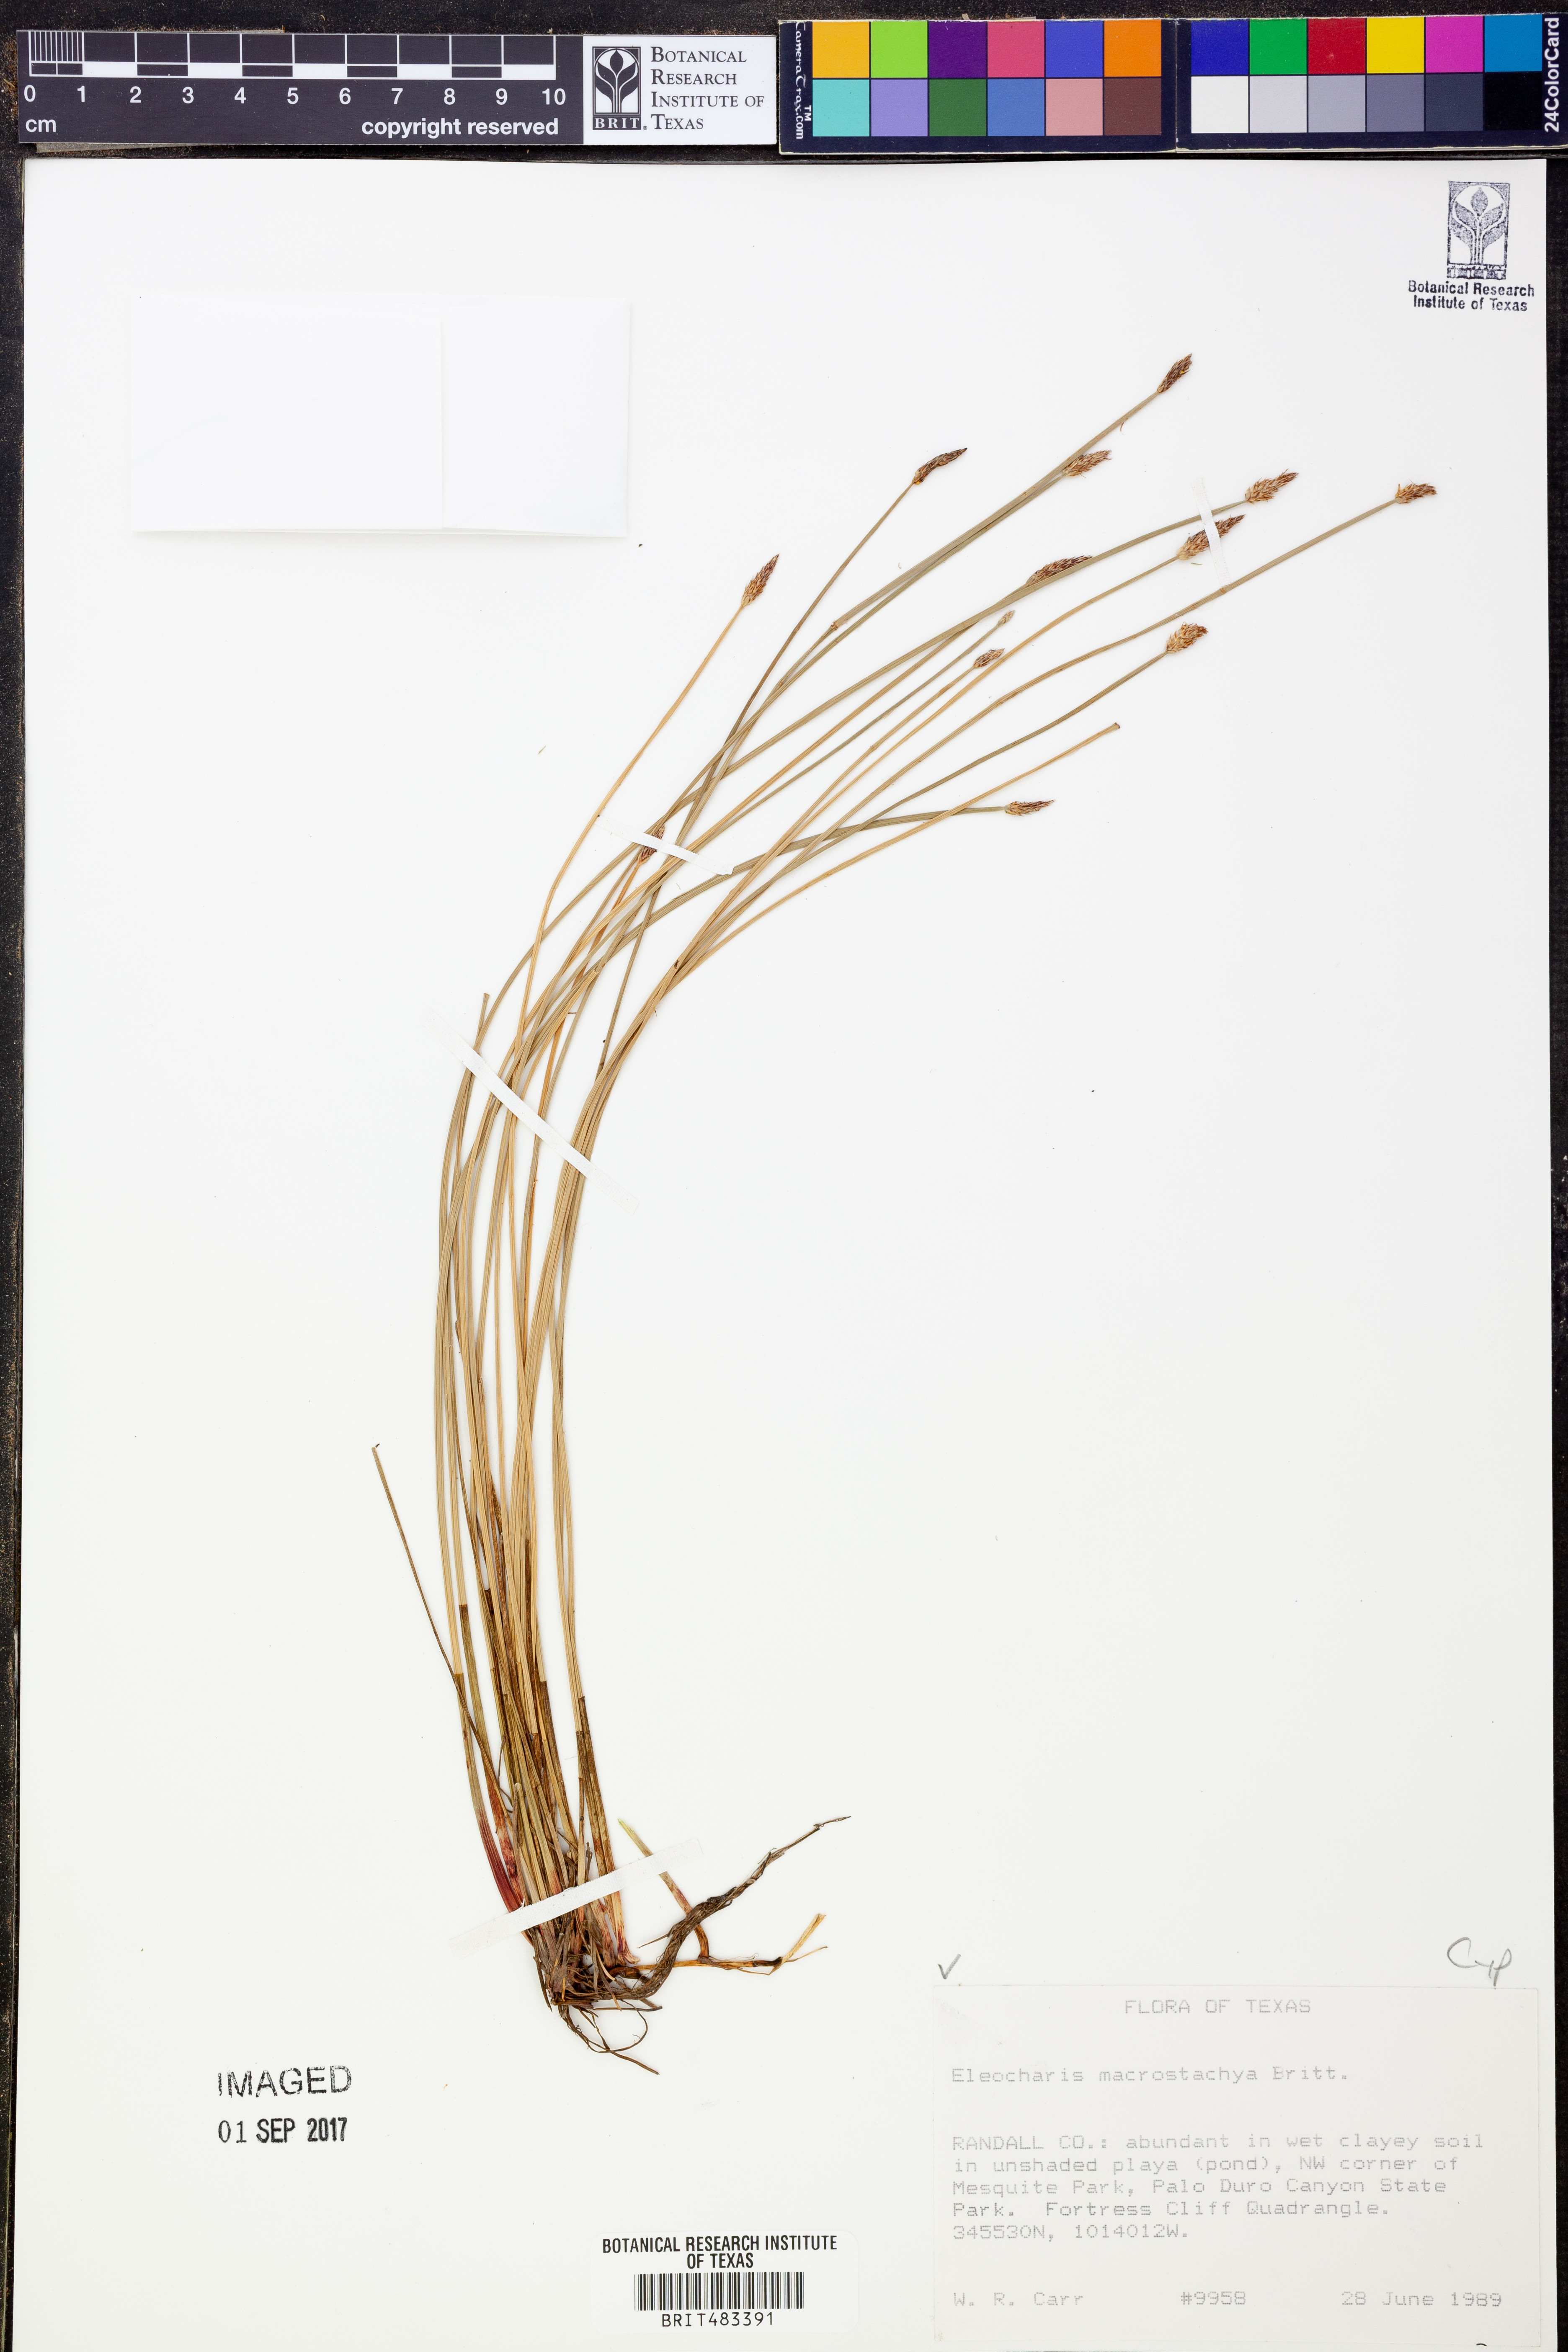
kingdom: Plantae
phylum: Tracheophyta
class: Liliopsida
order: Poales
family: Cyperaceae
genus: Eleocharis
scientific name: Eleocharis macrostachya
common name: Pale spikerush
